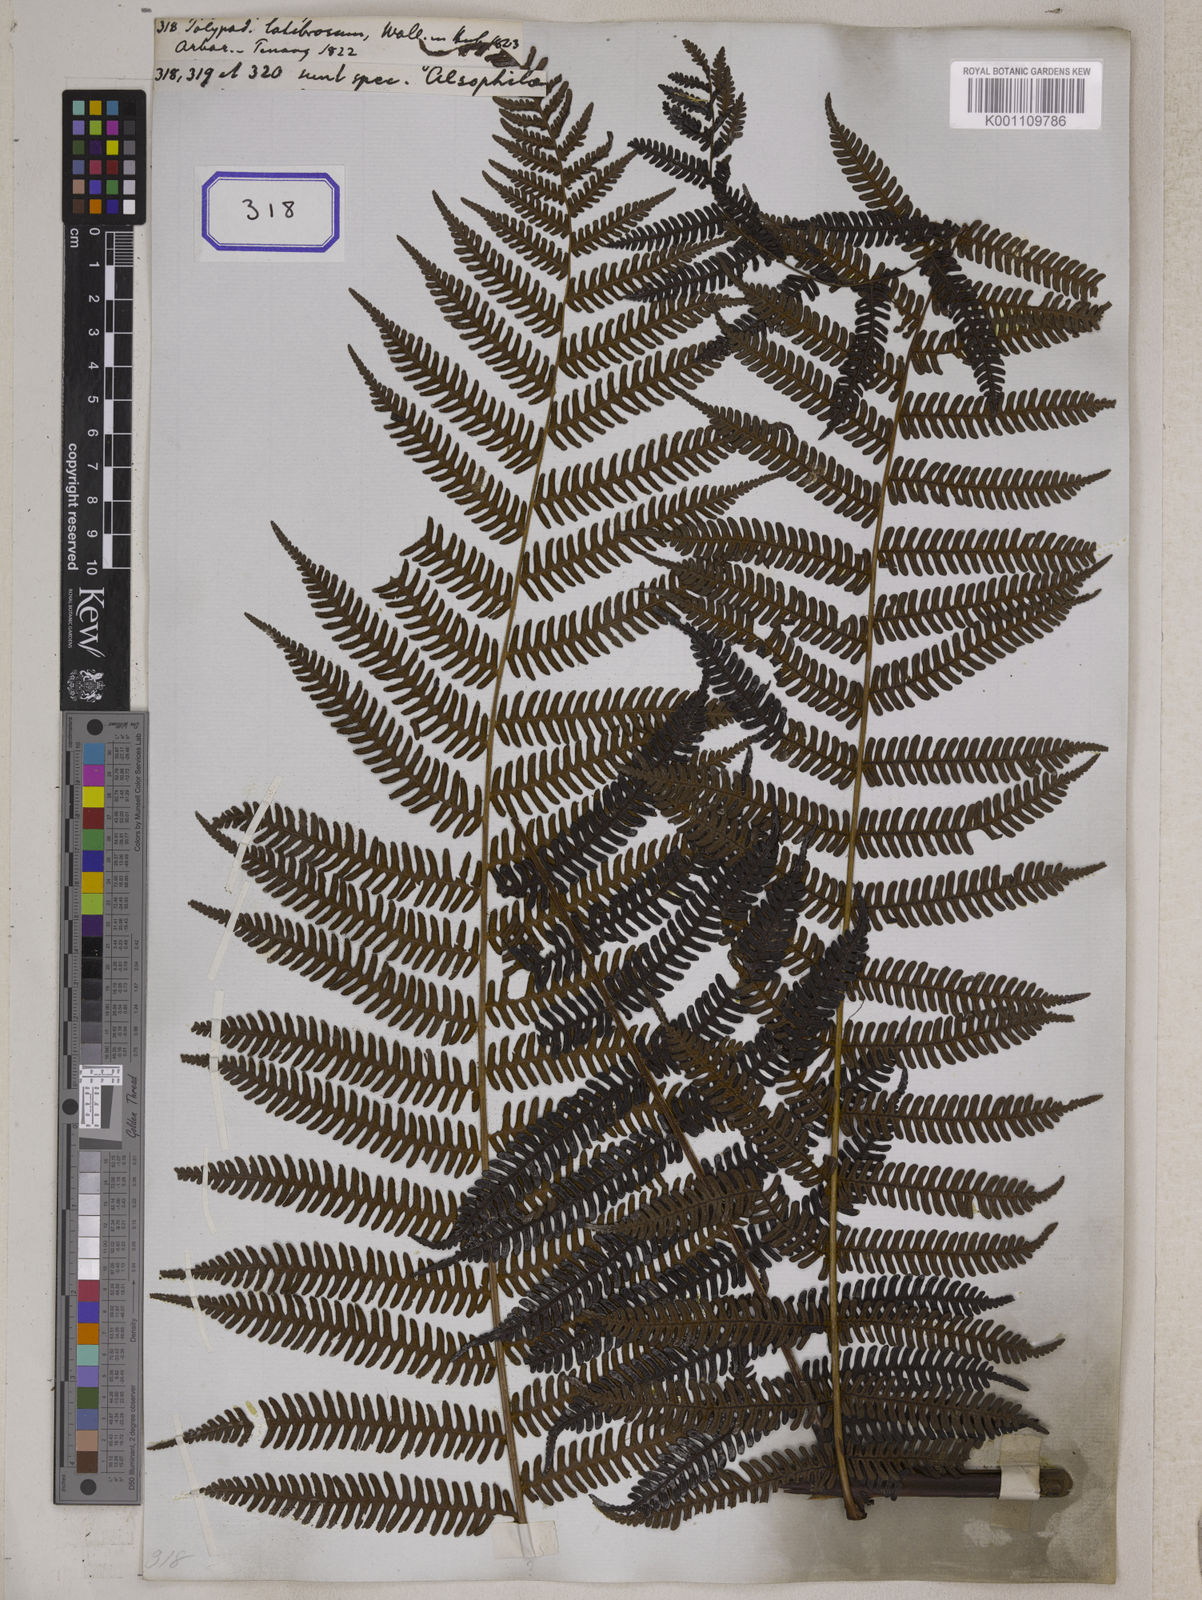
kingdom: Plantae
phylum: Tracheophyta
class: Polypodiopsida
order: Polypodiales
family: Polypodiaceae
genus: Polypodium
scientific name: Polypodium
